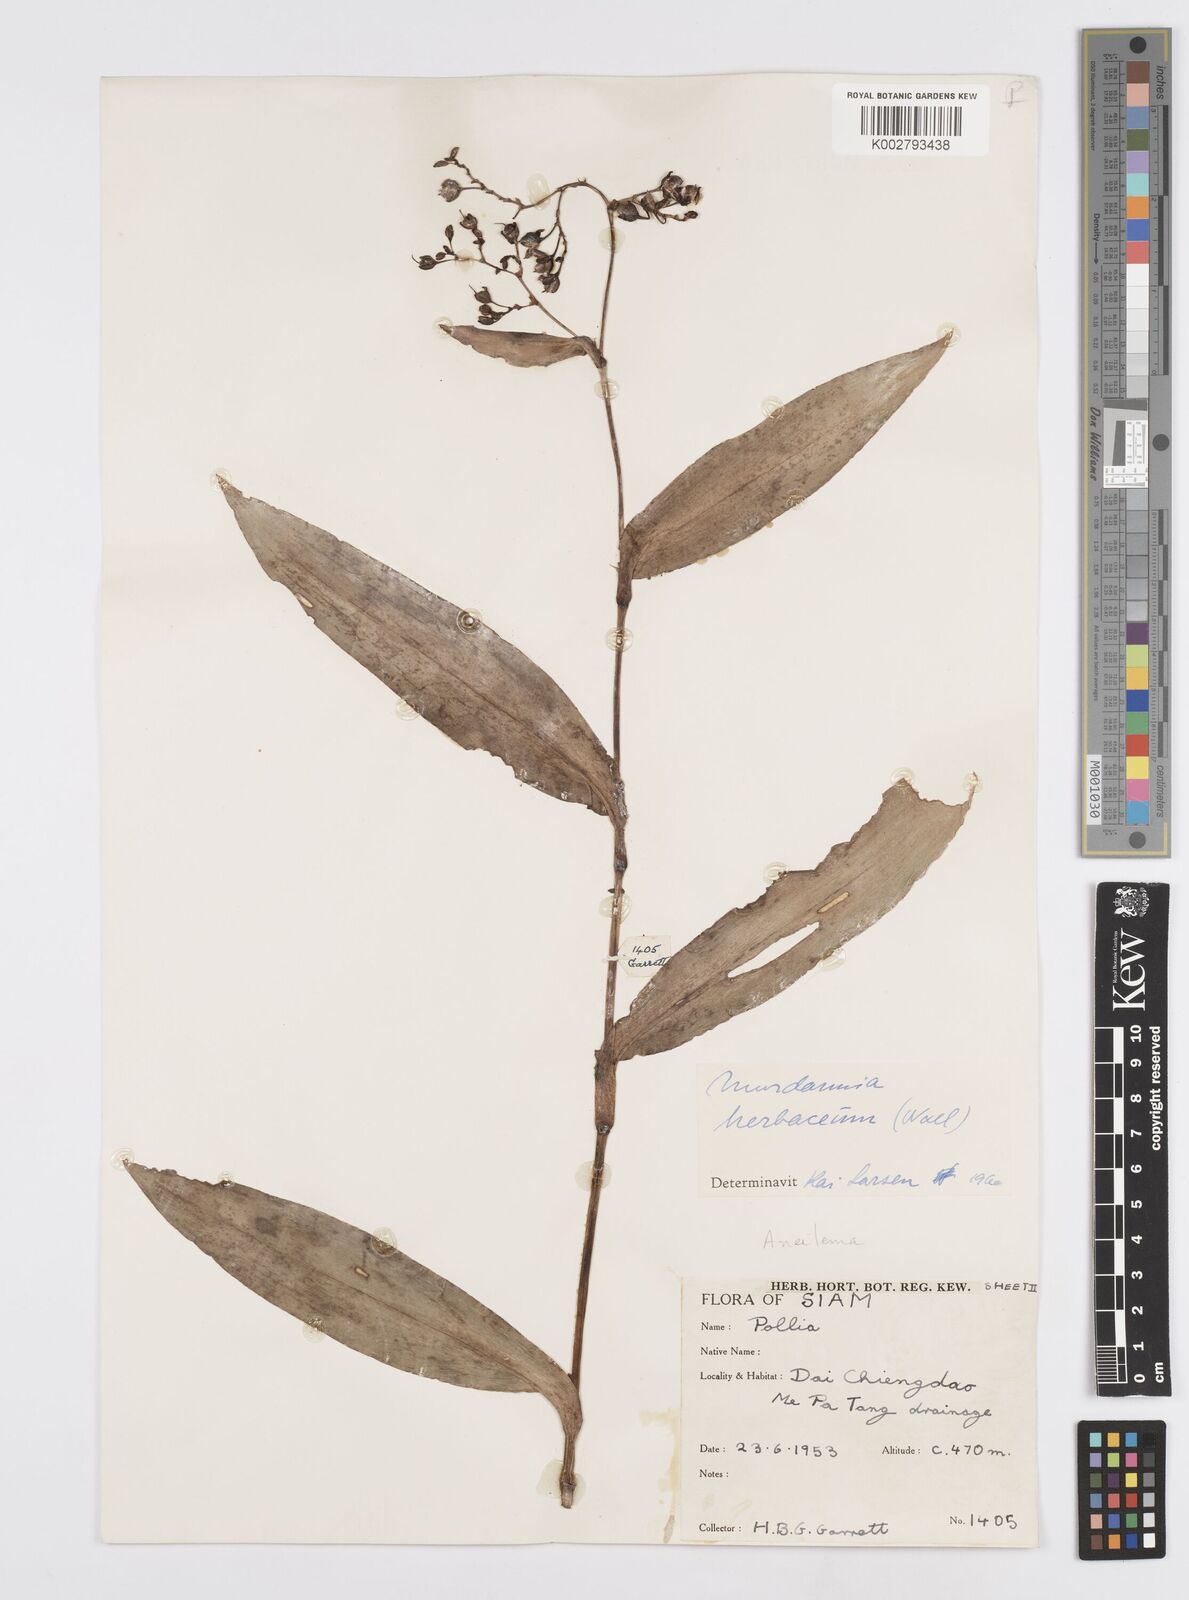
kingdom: Plantae
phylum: Tracheophyta
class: Liliopsida
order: Commelinales
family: Commelinaceae
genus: Murdannia
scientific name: Murdannia
